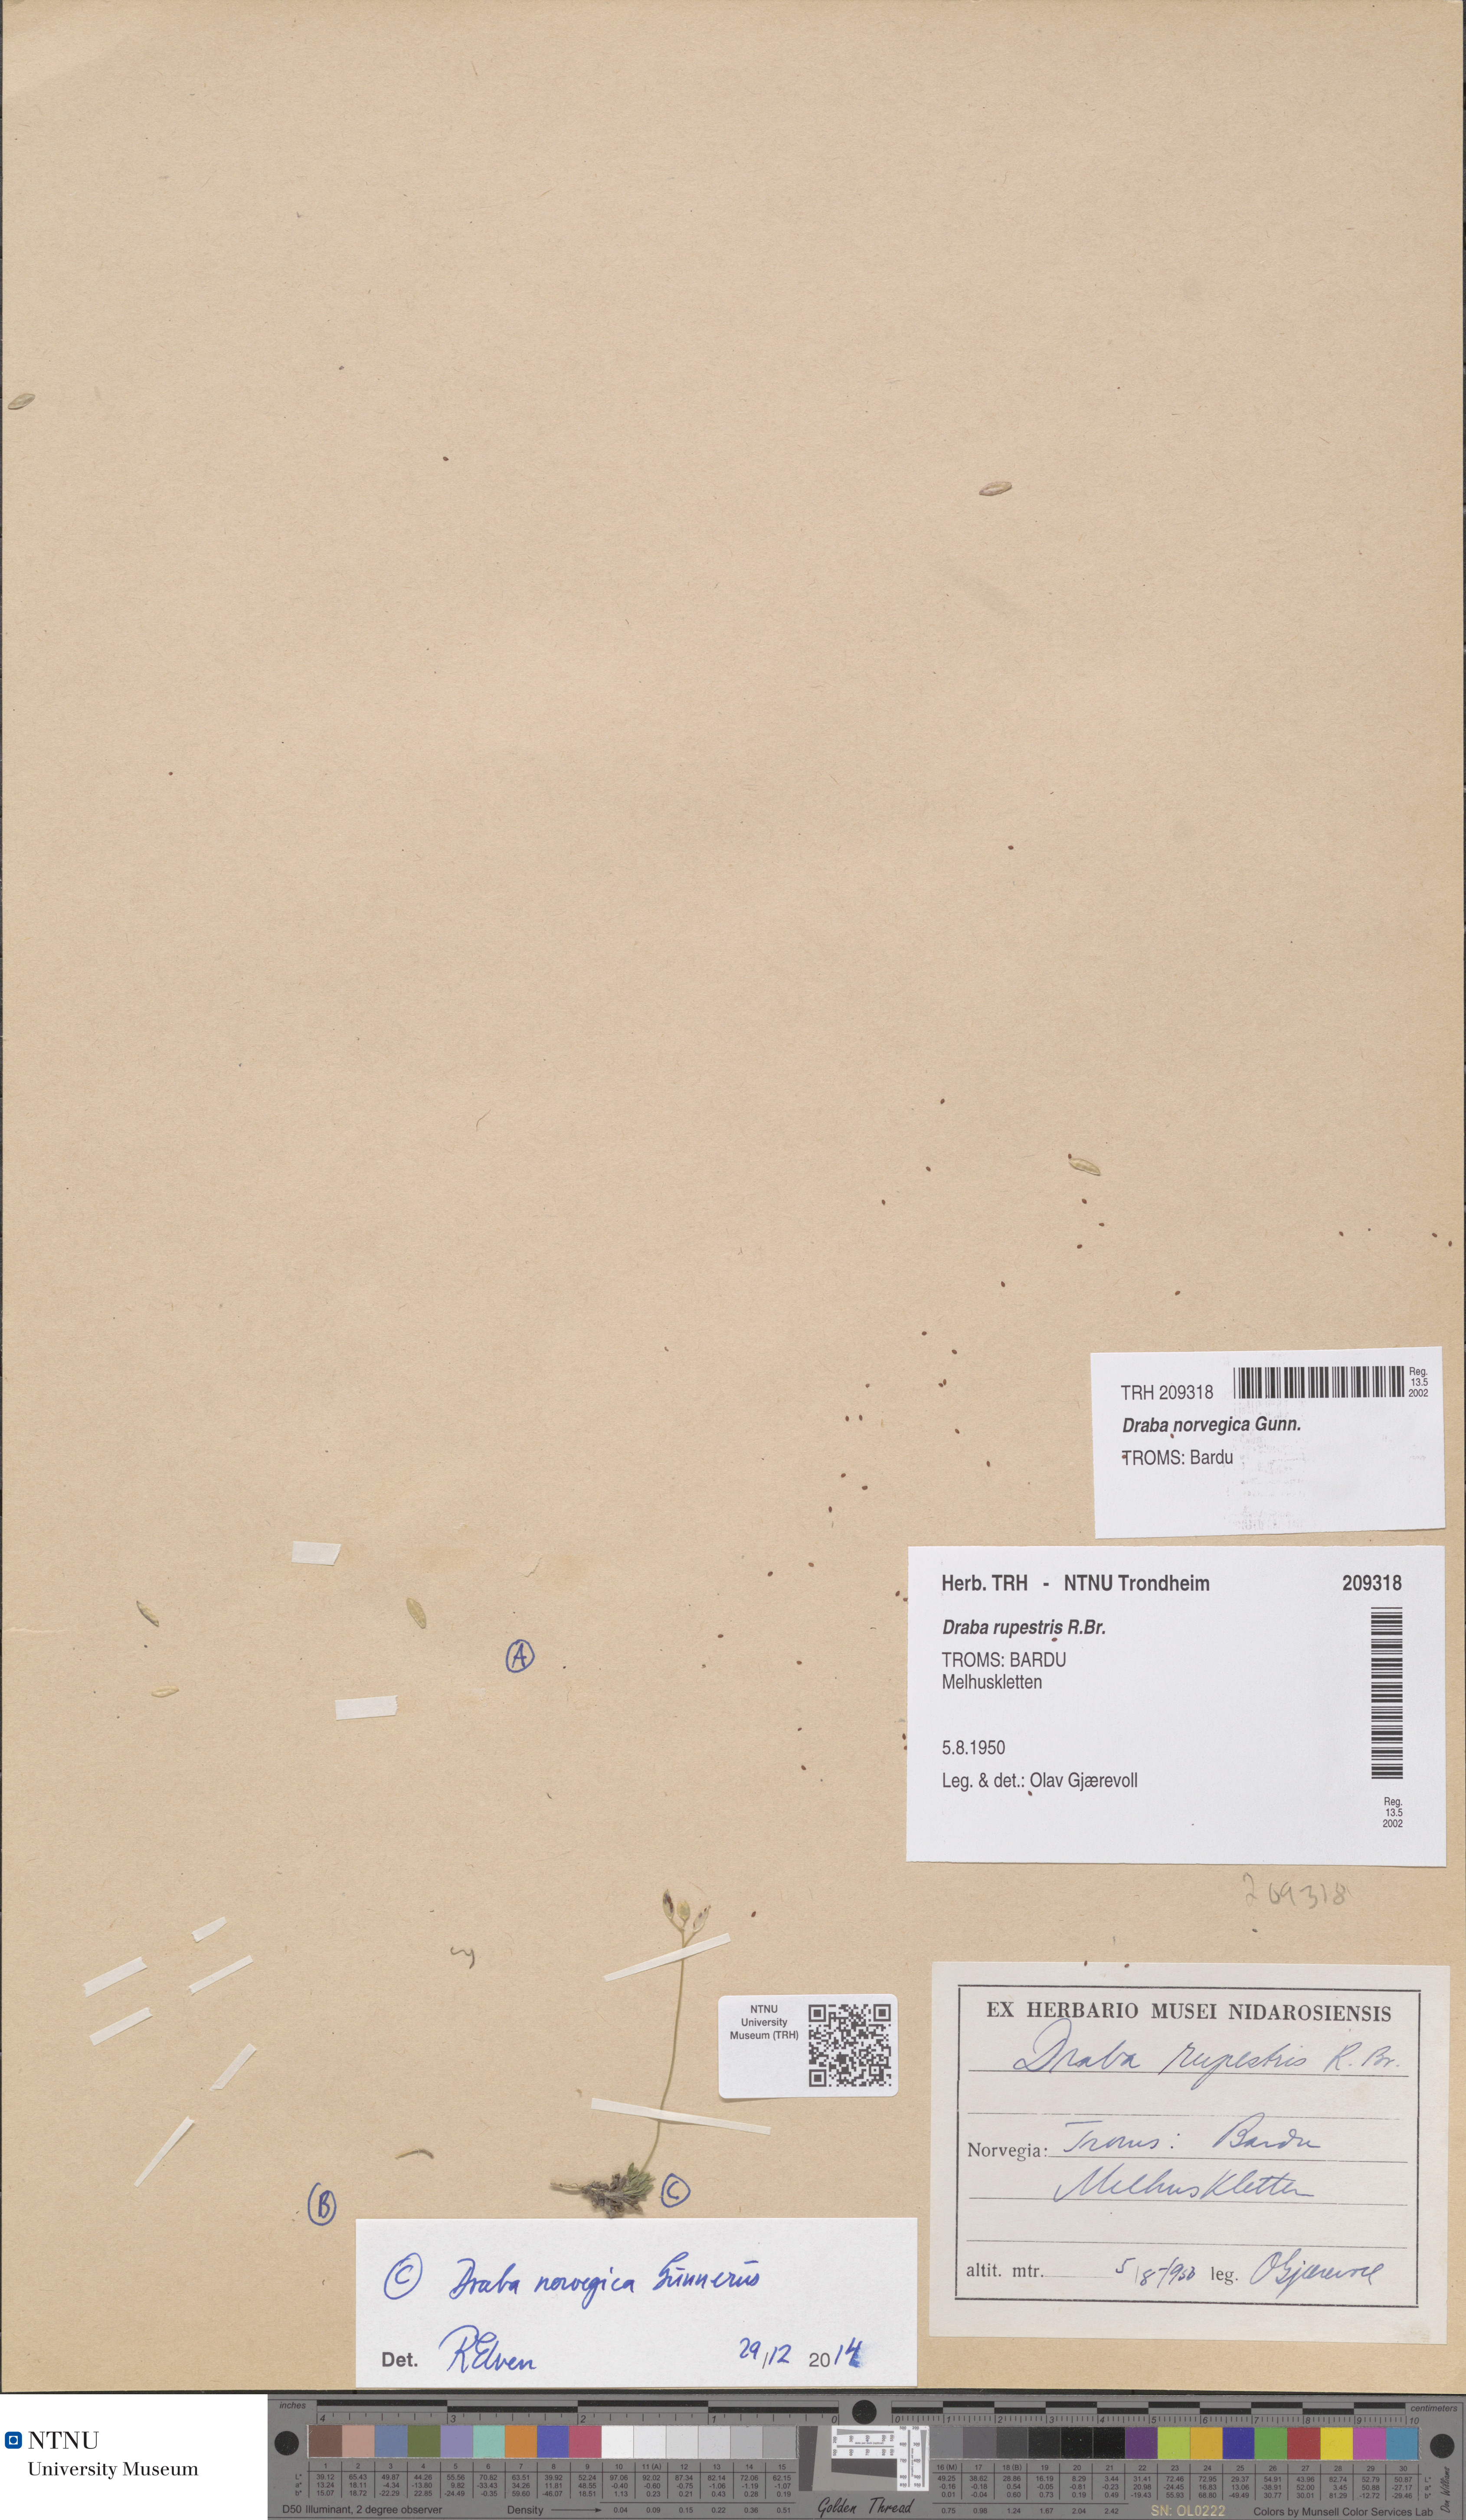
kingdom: Plantae
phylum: Tracheophyta
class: Magnoliopsida
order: Brassicales
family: Brassicaceae
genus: Draba
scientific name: Draba norvegica
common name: Rock whitlowgrass
